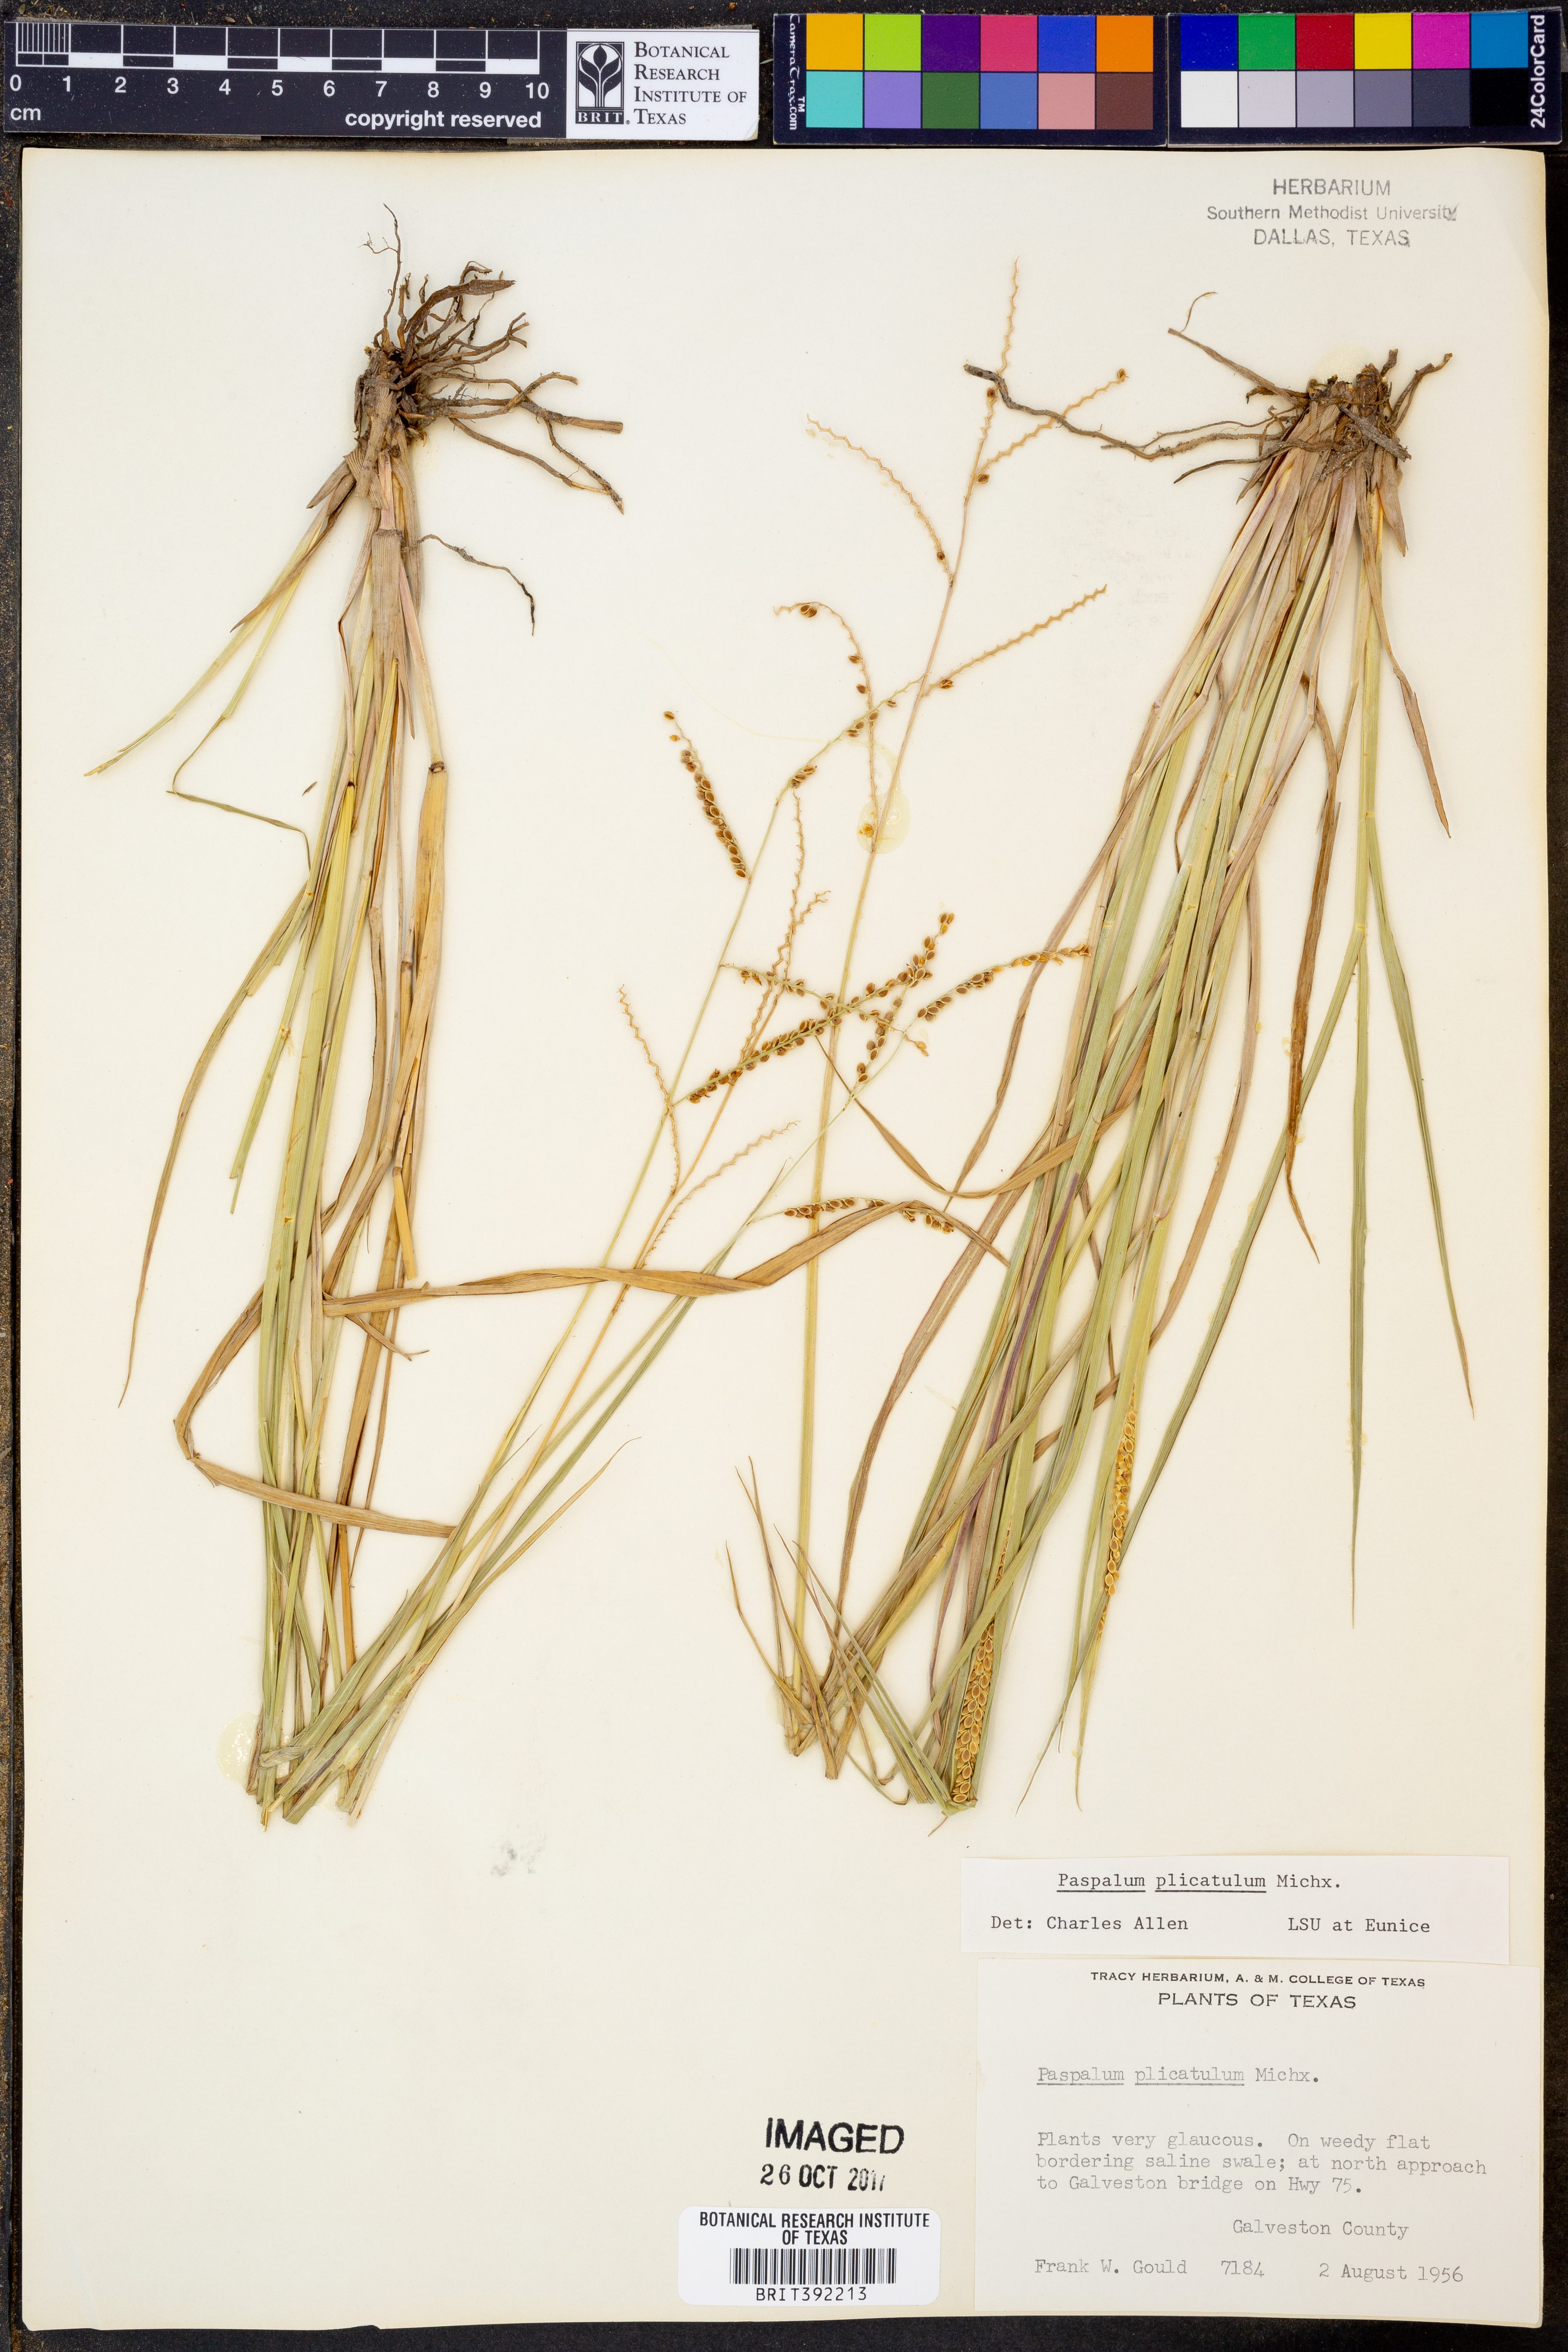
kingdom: Plantae
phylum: Tracheophyta
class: Liliopsida
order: Poales
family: Poaceae
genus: Paspalum
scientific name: Paspalum plicatulum
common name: Top paspalum
